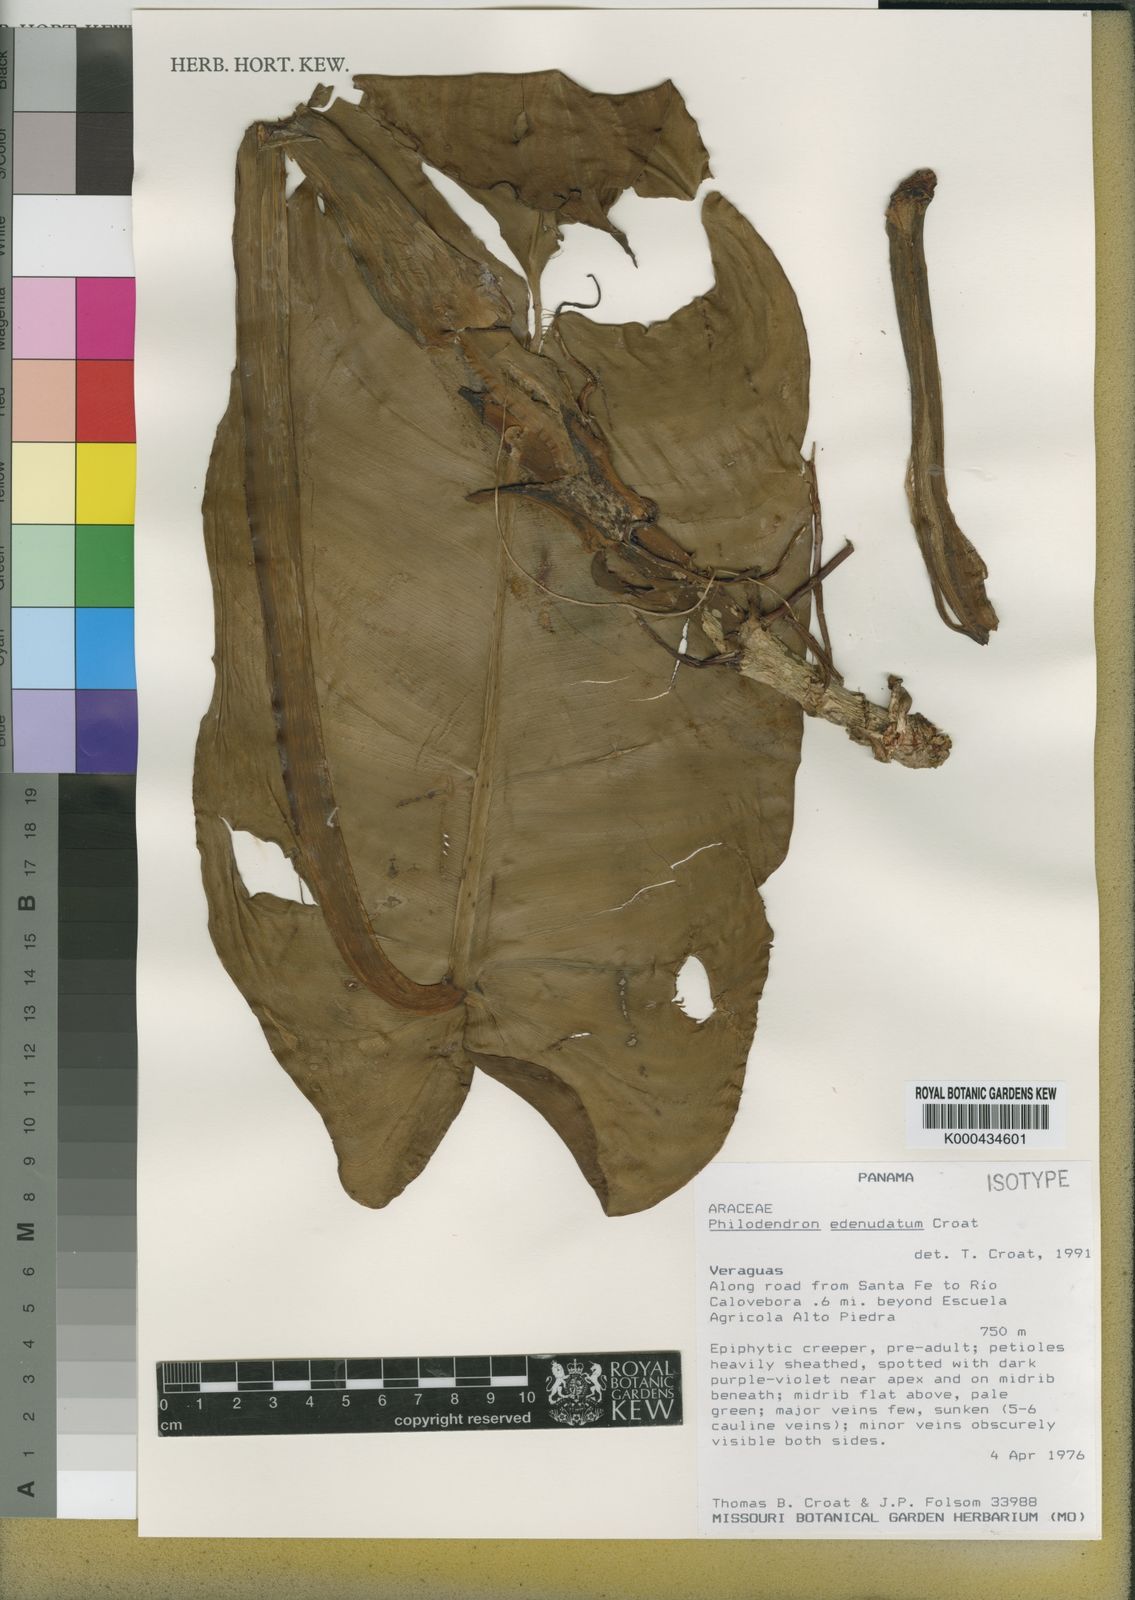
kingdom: Plantae
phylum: Tracheophyta
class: Liliopsida
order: Alismatales
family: Araceae
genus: Philodendron
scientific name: Philodendron edenudatum
